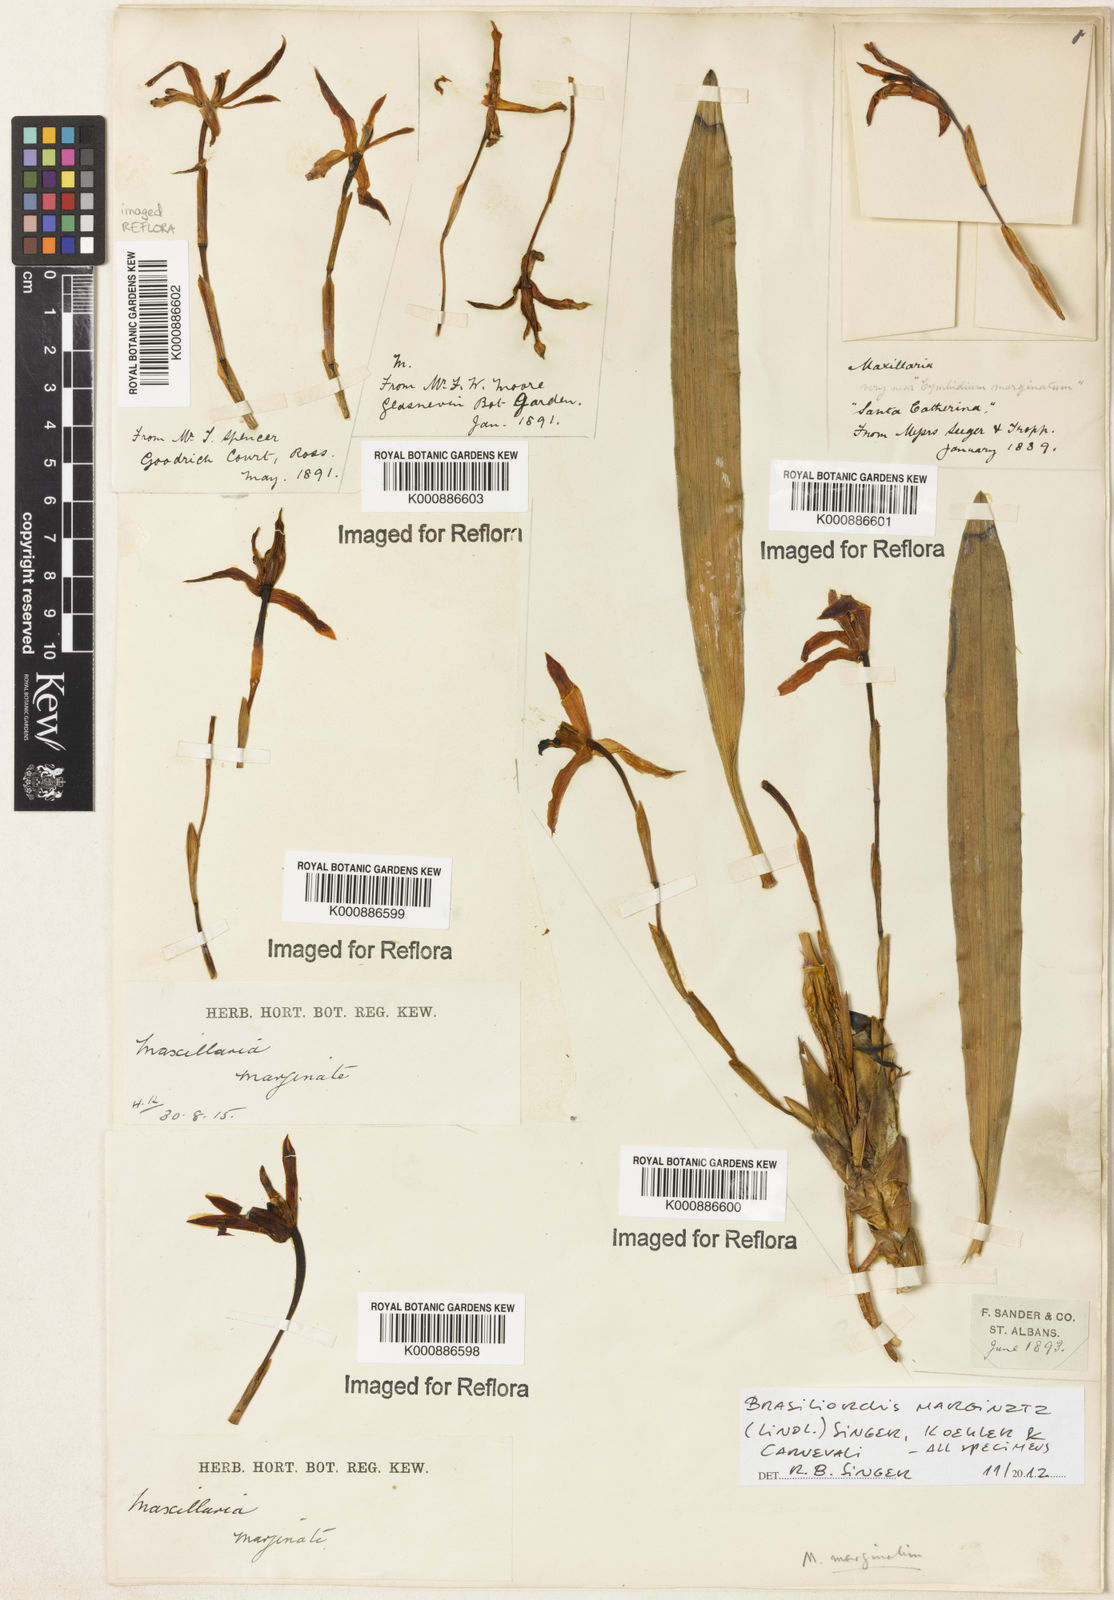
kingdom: Plantae
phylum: Tracheophyta
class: Liliopsida
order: Asparagales
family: Orchidaceae
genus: Maxillaria
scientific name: Maxillaria marginata
